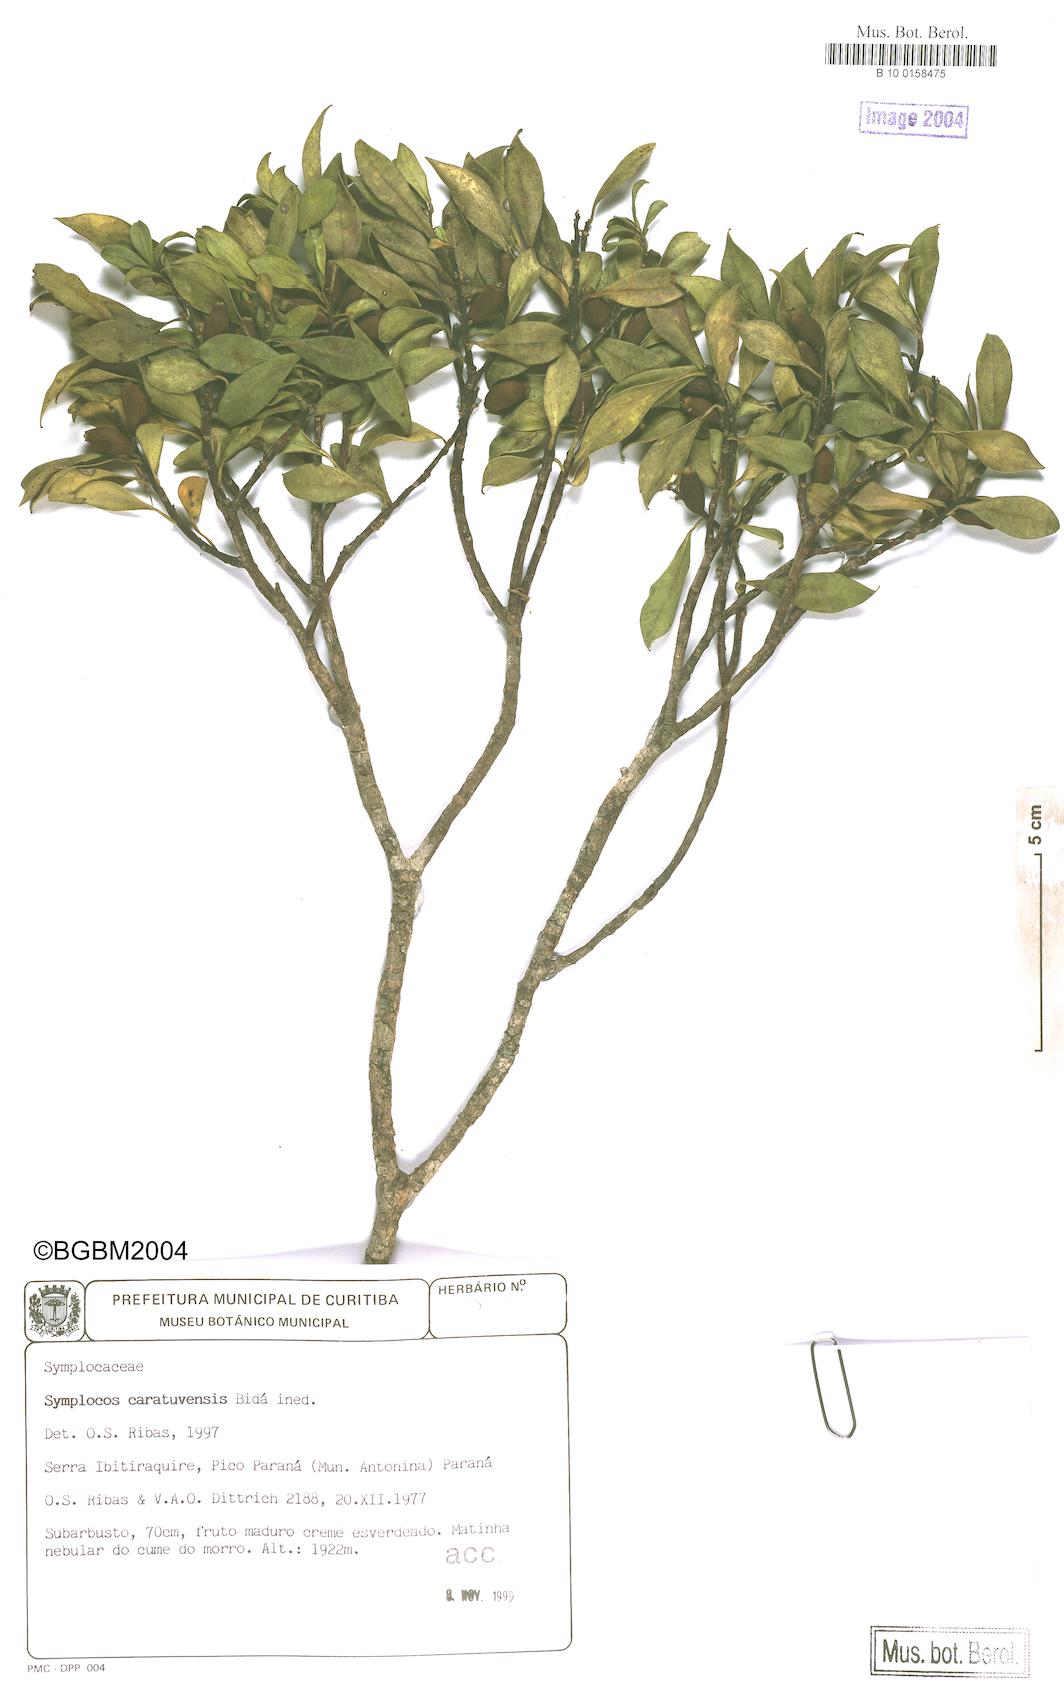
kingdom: Plantae
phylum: Tracheophyta
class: Magnoliopsida
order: Ericales
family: Symplocaceae
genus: Symplocos
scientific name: Symplocos incrassata
